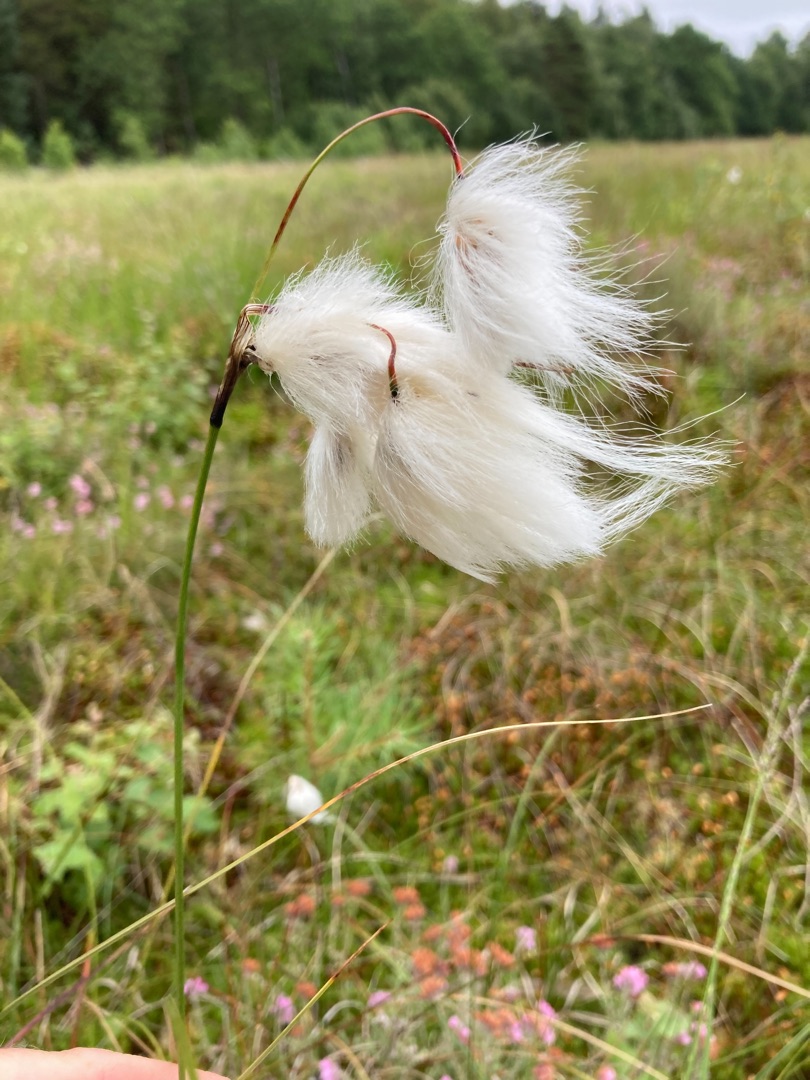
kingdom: Plantae
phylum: Tracheophyta
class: Liliopsida
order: Poales
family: Cyperaceae
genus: Eriophorum
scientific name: Eriophorum angustifolium
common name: Smalbladet kæruld
